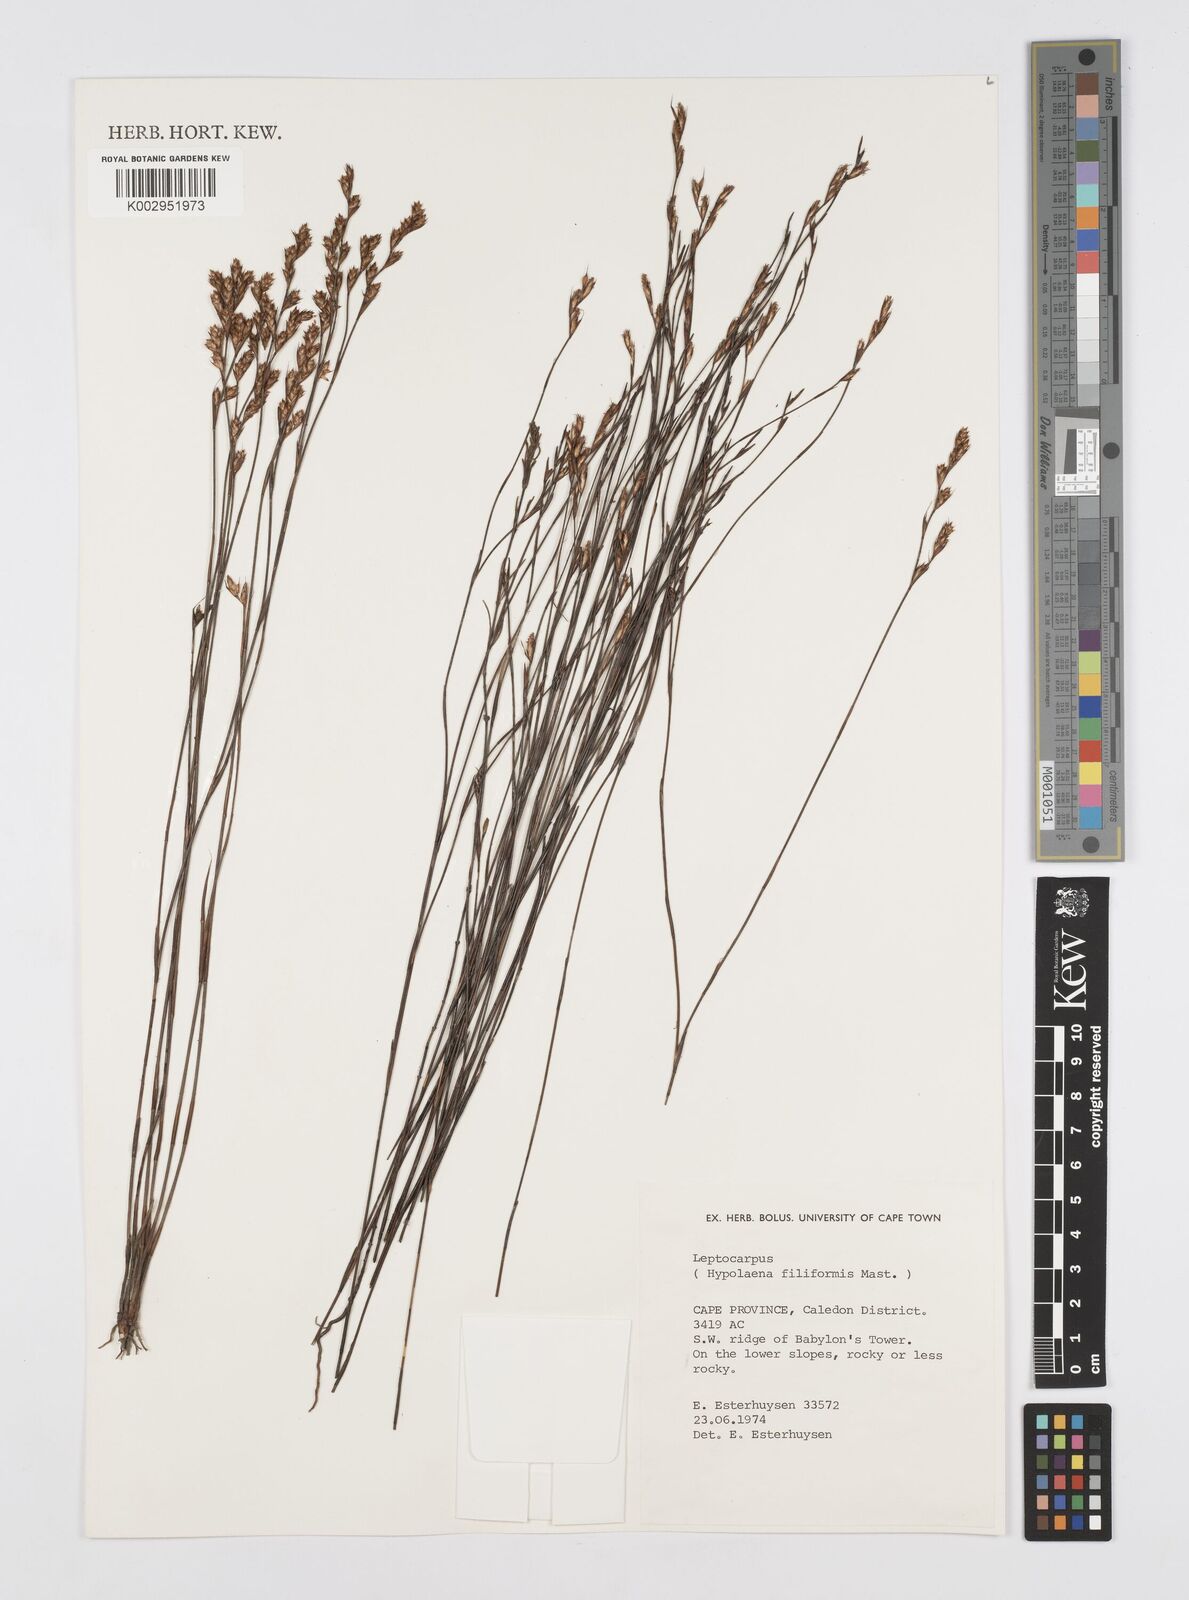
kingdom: Plantae
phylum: Tracheophyta
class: Liliopsida
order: Poales
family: Restionaceae
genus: Restio
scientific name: Restio filiformis
